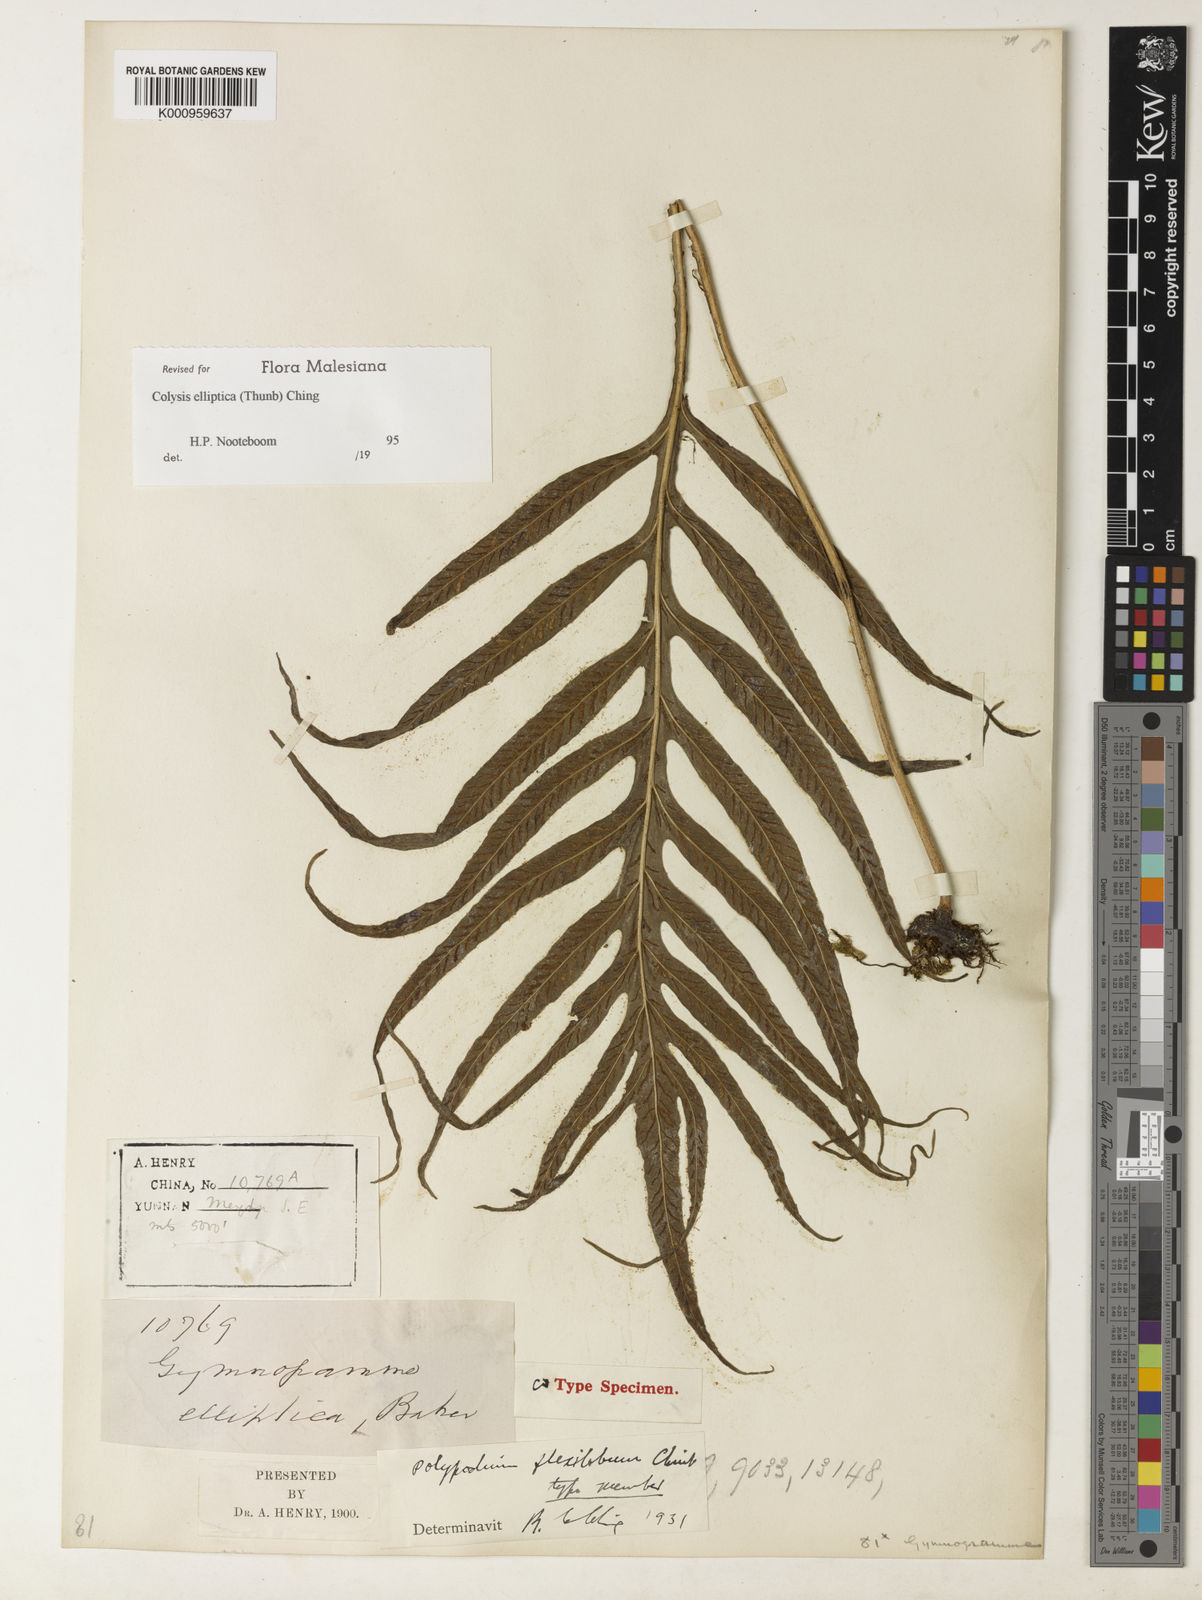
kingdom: Plantae
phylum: Tracheophyta
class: Polypodiopsida
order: Polypodiales
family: Polypodiaceae
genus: Leptochilus
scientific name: Leptochilus ellipticus
